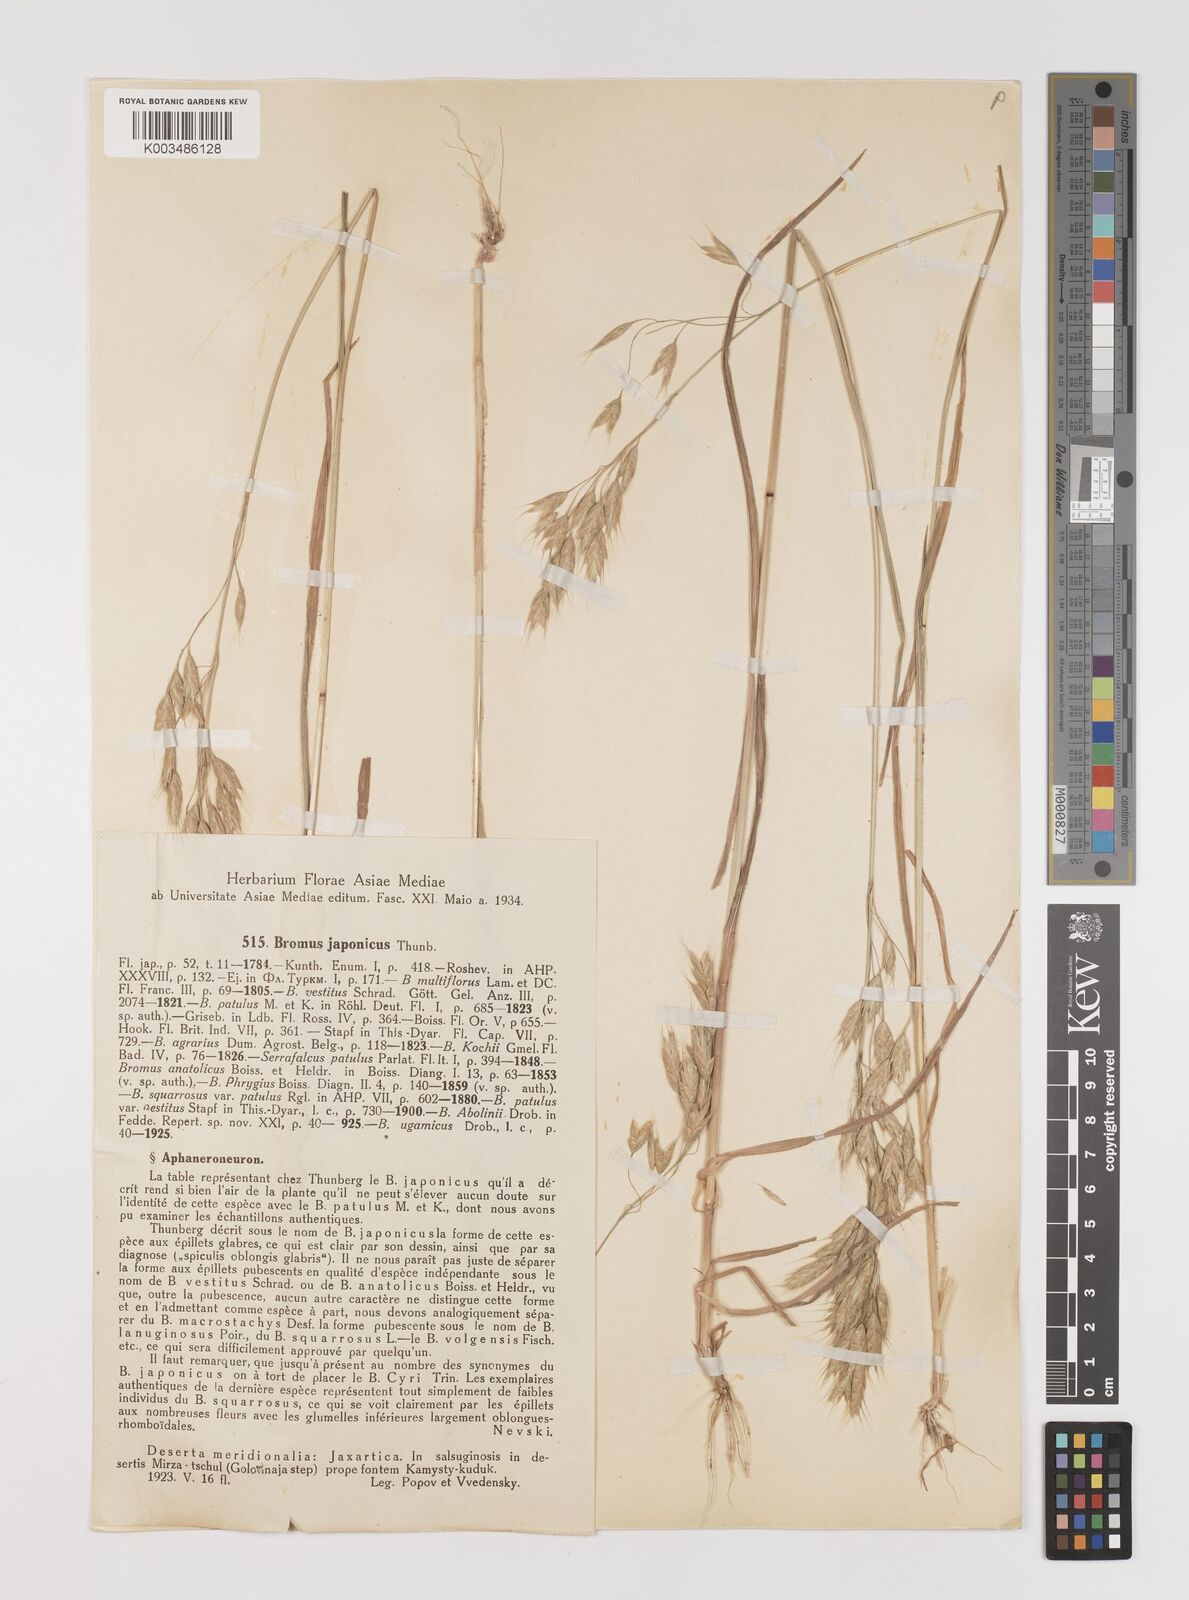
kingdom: Plantae
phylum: Tracheophyta
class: Liliopsida
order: Poales
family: Poaceae
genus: Bromus
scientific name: Bromus japonicus
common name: Japanese brome
